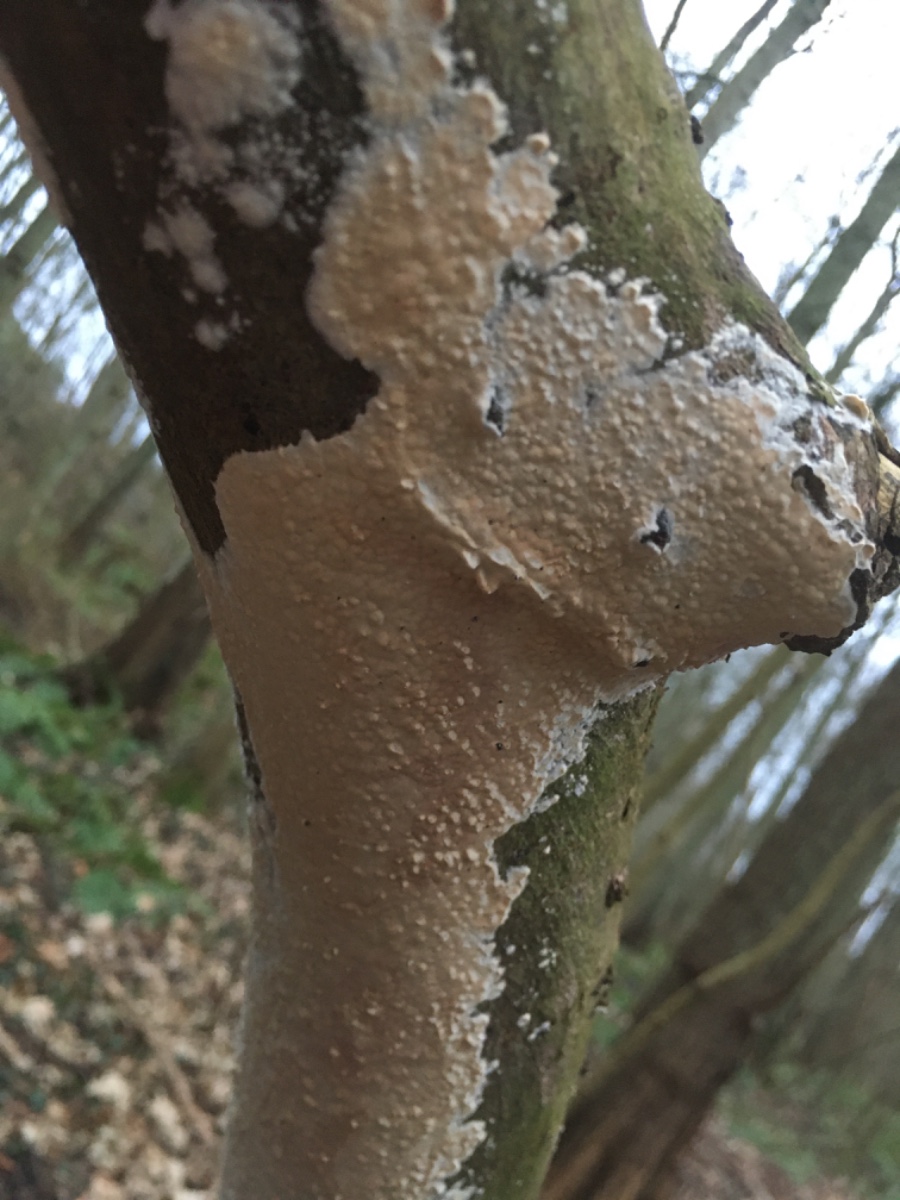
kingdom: Fungi
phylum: Basidiomycota
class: Agaricomycetes
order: Agaricales
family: Physalacriaceae
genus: Cylindrobasidium
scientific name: Cylindrobasidium evolvens
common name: sprækkehinde
